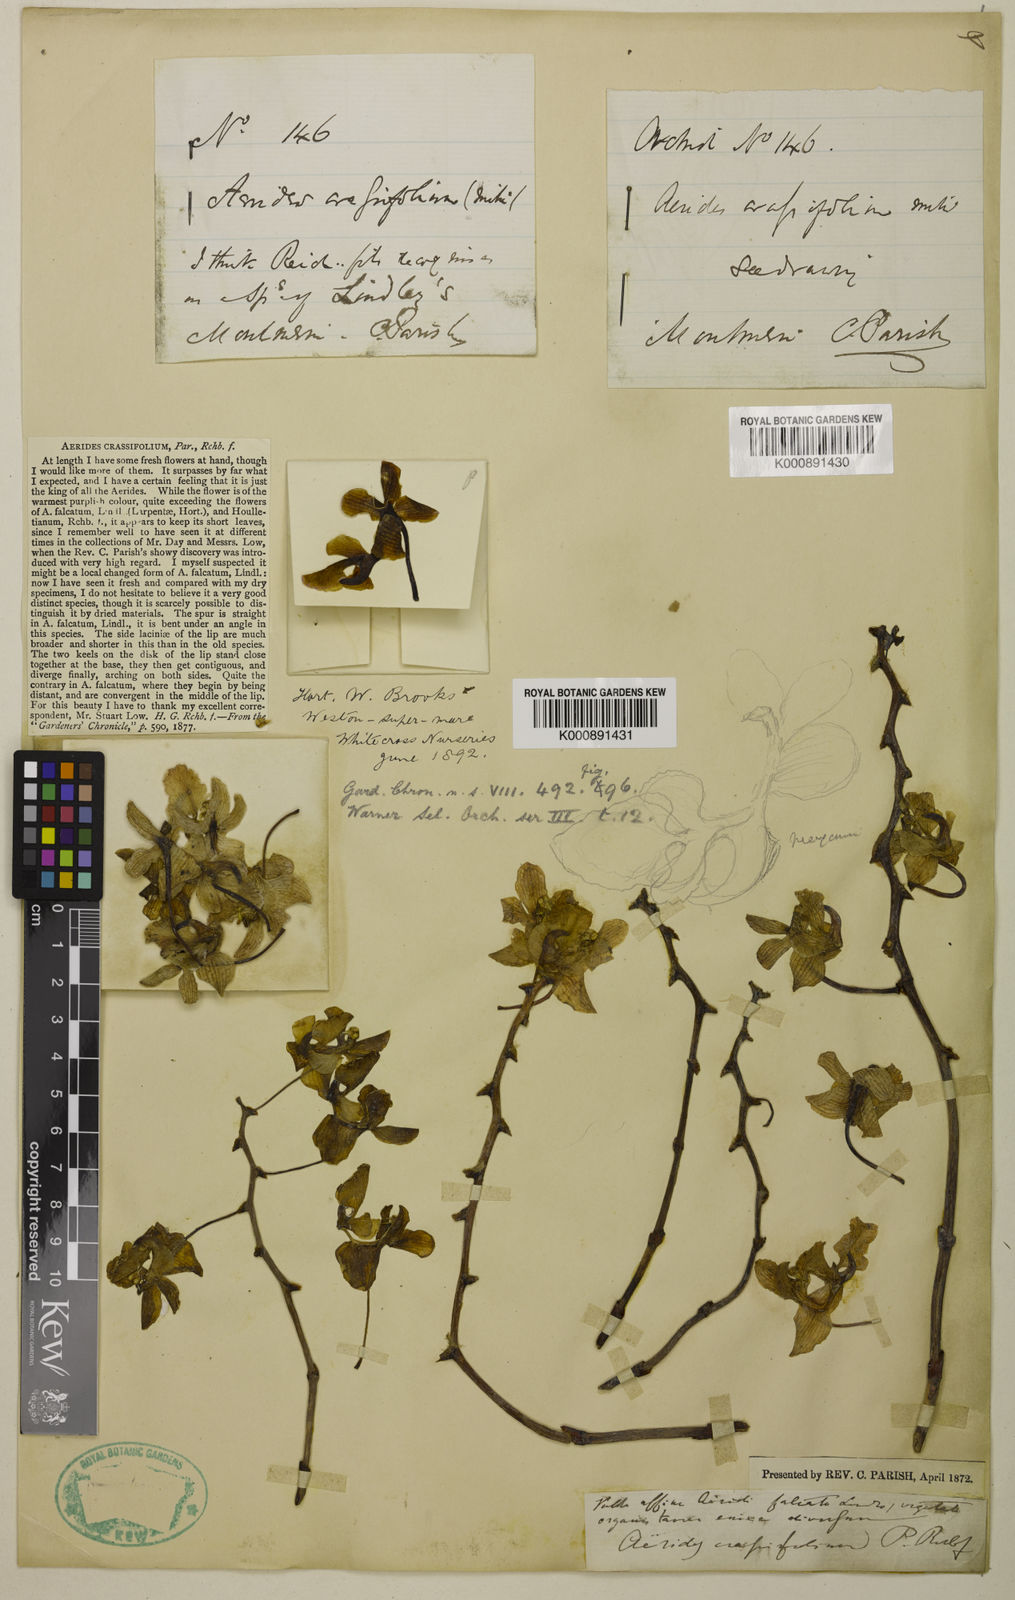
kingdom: Plantae
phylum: Tracheophyta
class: Liliopsida
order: Asparagales
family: Orchidaceae
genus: Aerides
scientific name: Aerides crassifolia
